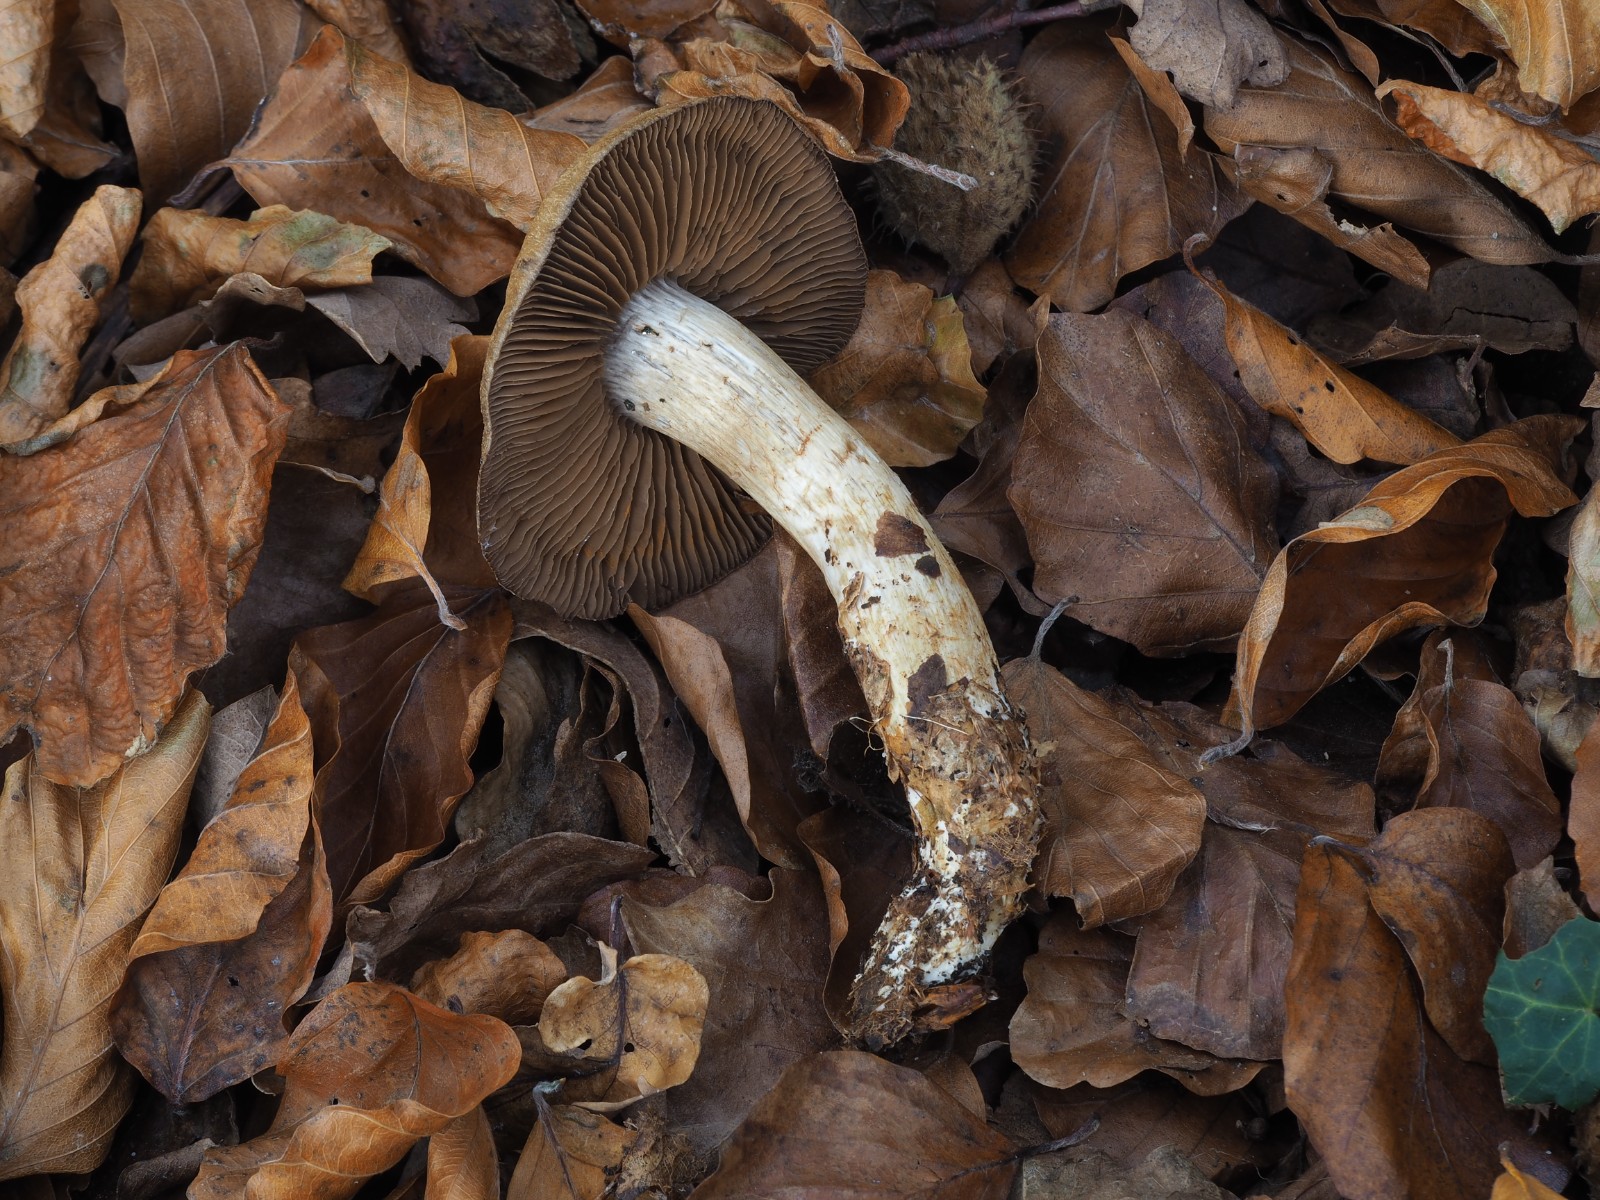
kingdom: Fungi
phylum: Basidiomycota
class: Agaricomycetes
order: Agaricales
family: Cortinariaceae
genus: Cortinarius
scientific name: Cortinarius
